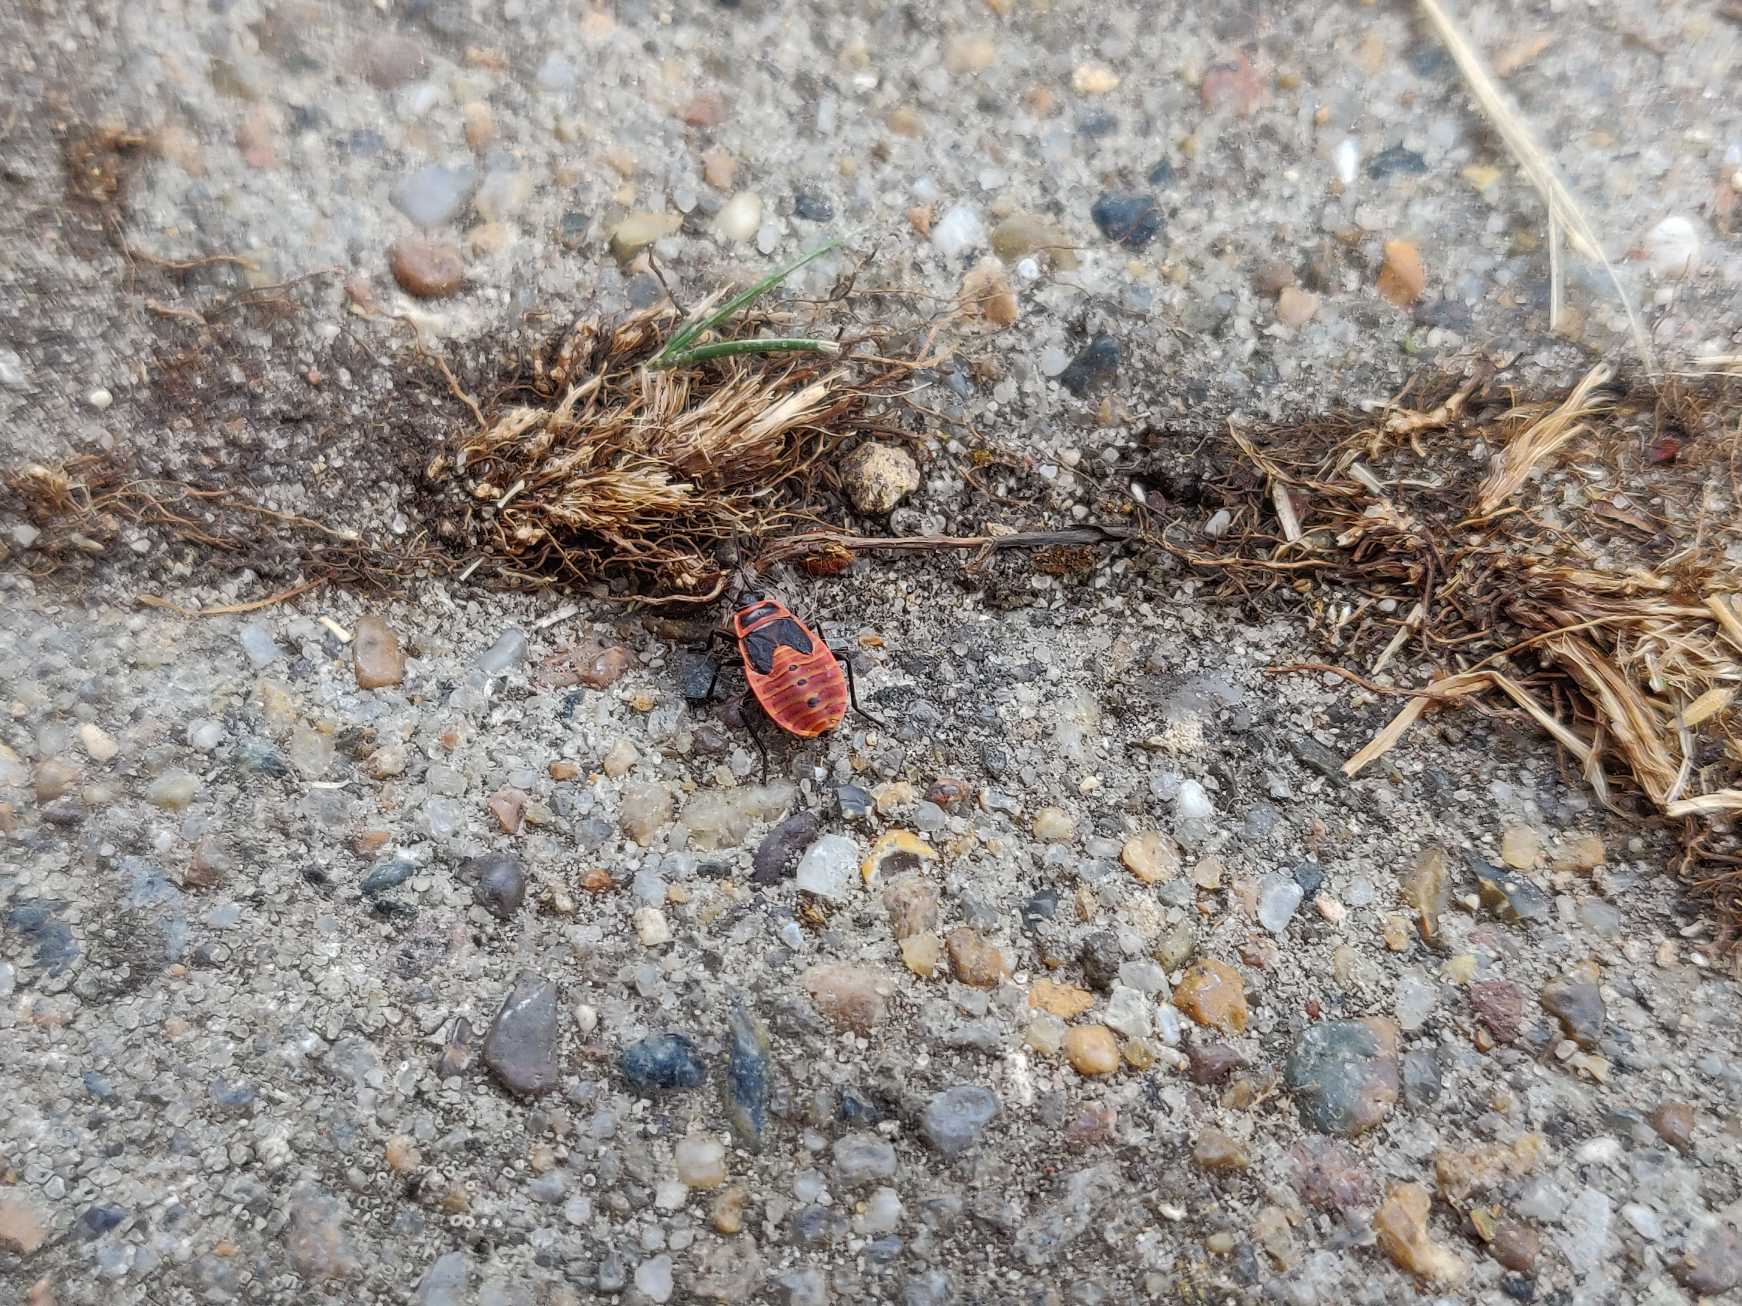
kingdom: Animalia
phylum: Arthropoda
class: Insecta
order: Hemiptera
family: Pyrrhocoridae
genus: Pyrrhocoris
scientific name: Pyrrhocoris apterus
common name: Ildtæge
